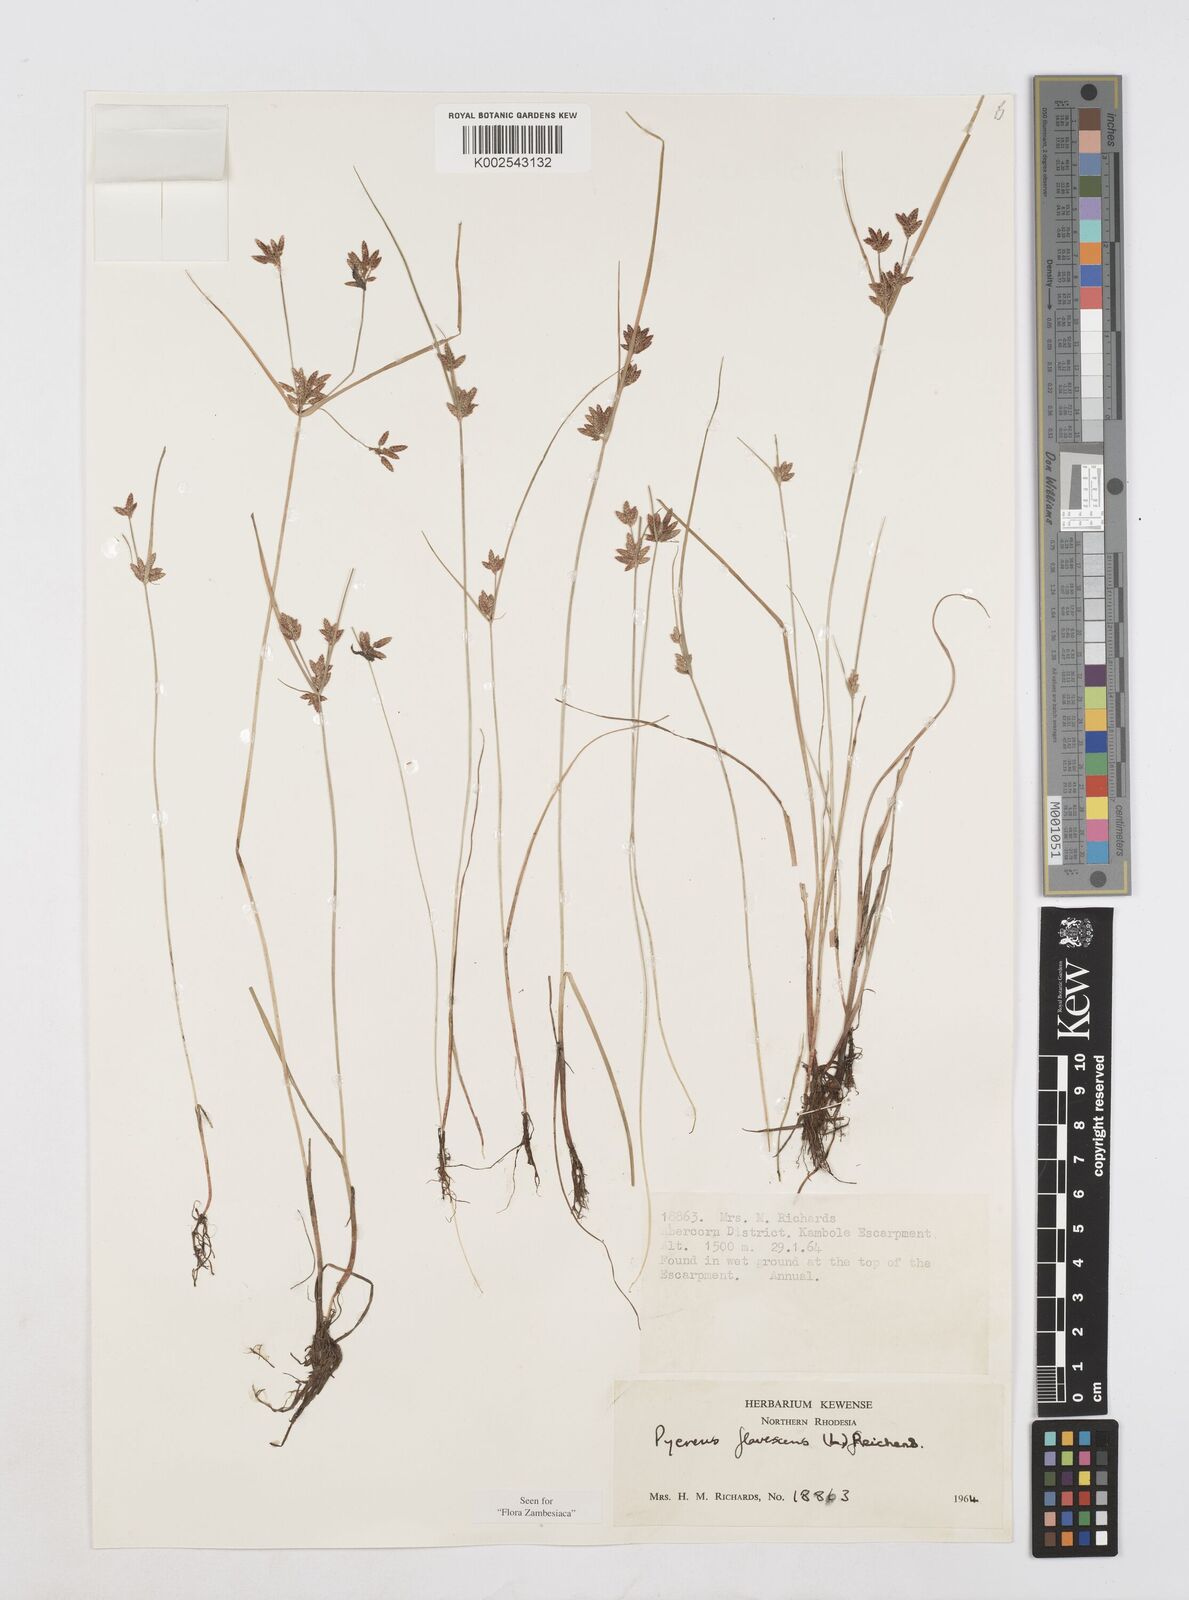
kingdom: Plantae
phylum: Tracheophyta
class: Liliopsida
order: Poales
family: Cyperaceae
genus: Cyperus
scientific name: Cyperus flavescens
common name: Yellow galingale
